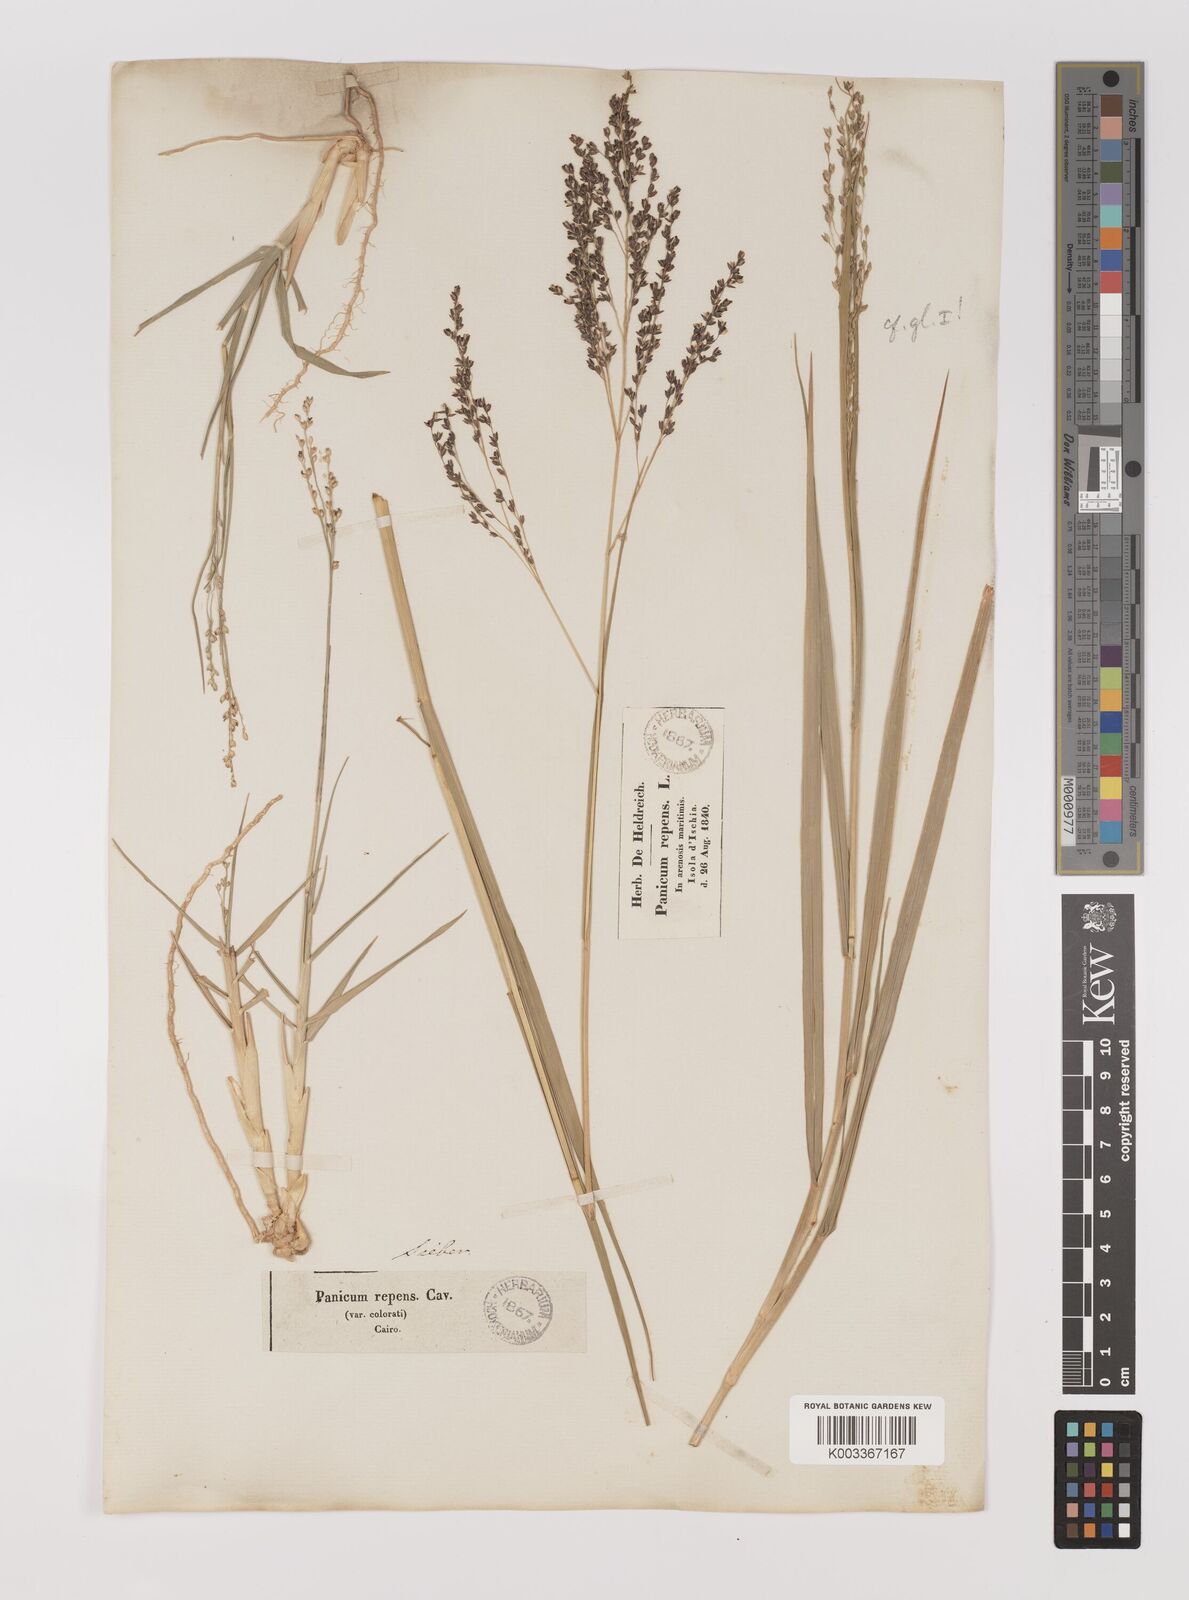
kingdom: Plantae
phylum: Tracheophyta
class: Liliopsida
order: Poales
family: Poaceae
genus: Panicum
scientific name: Panicum repens
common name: Torpedo grass
